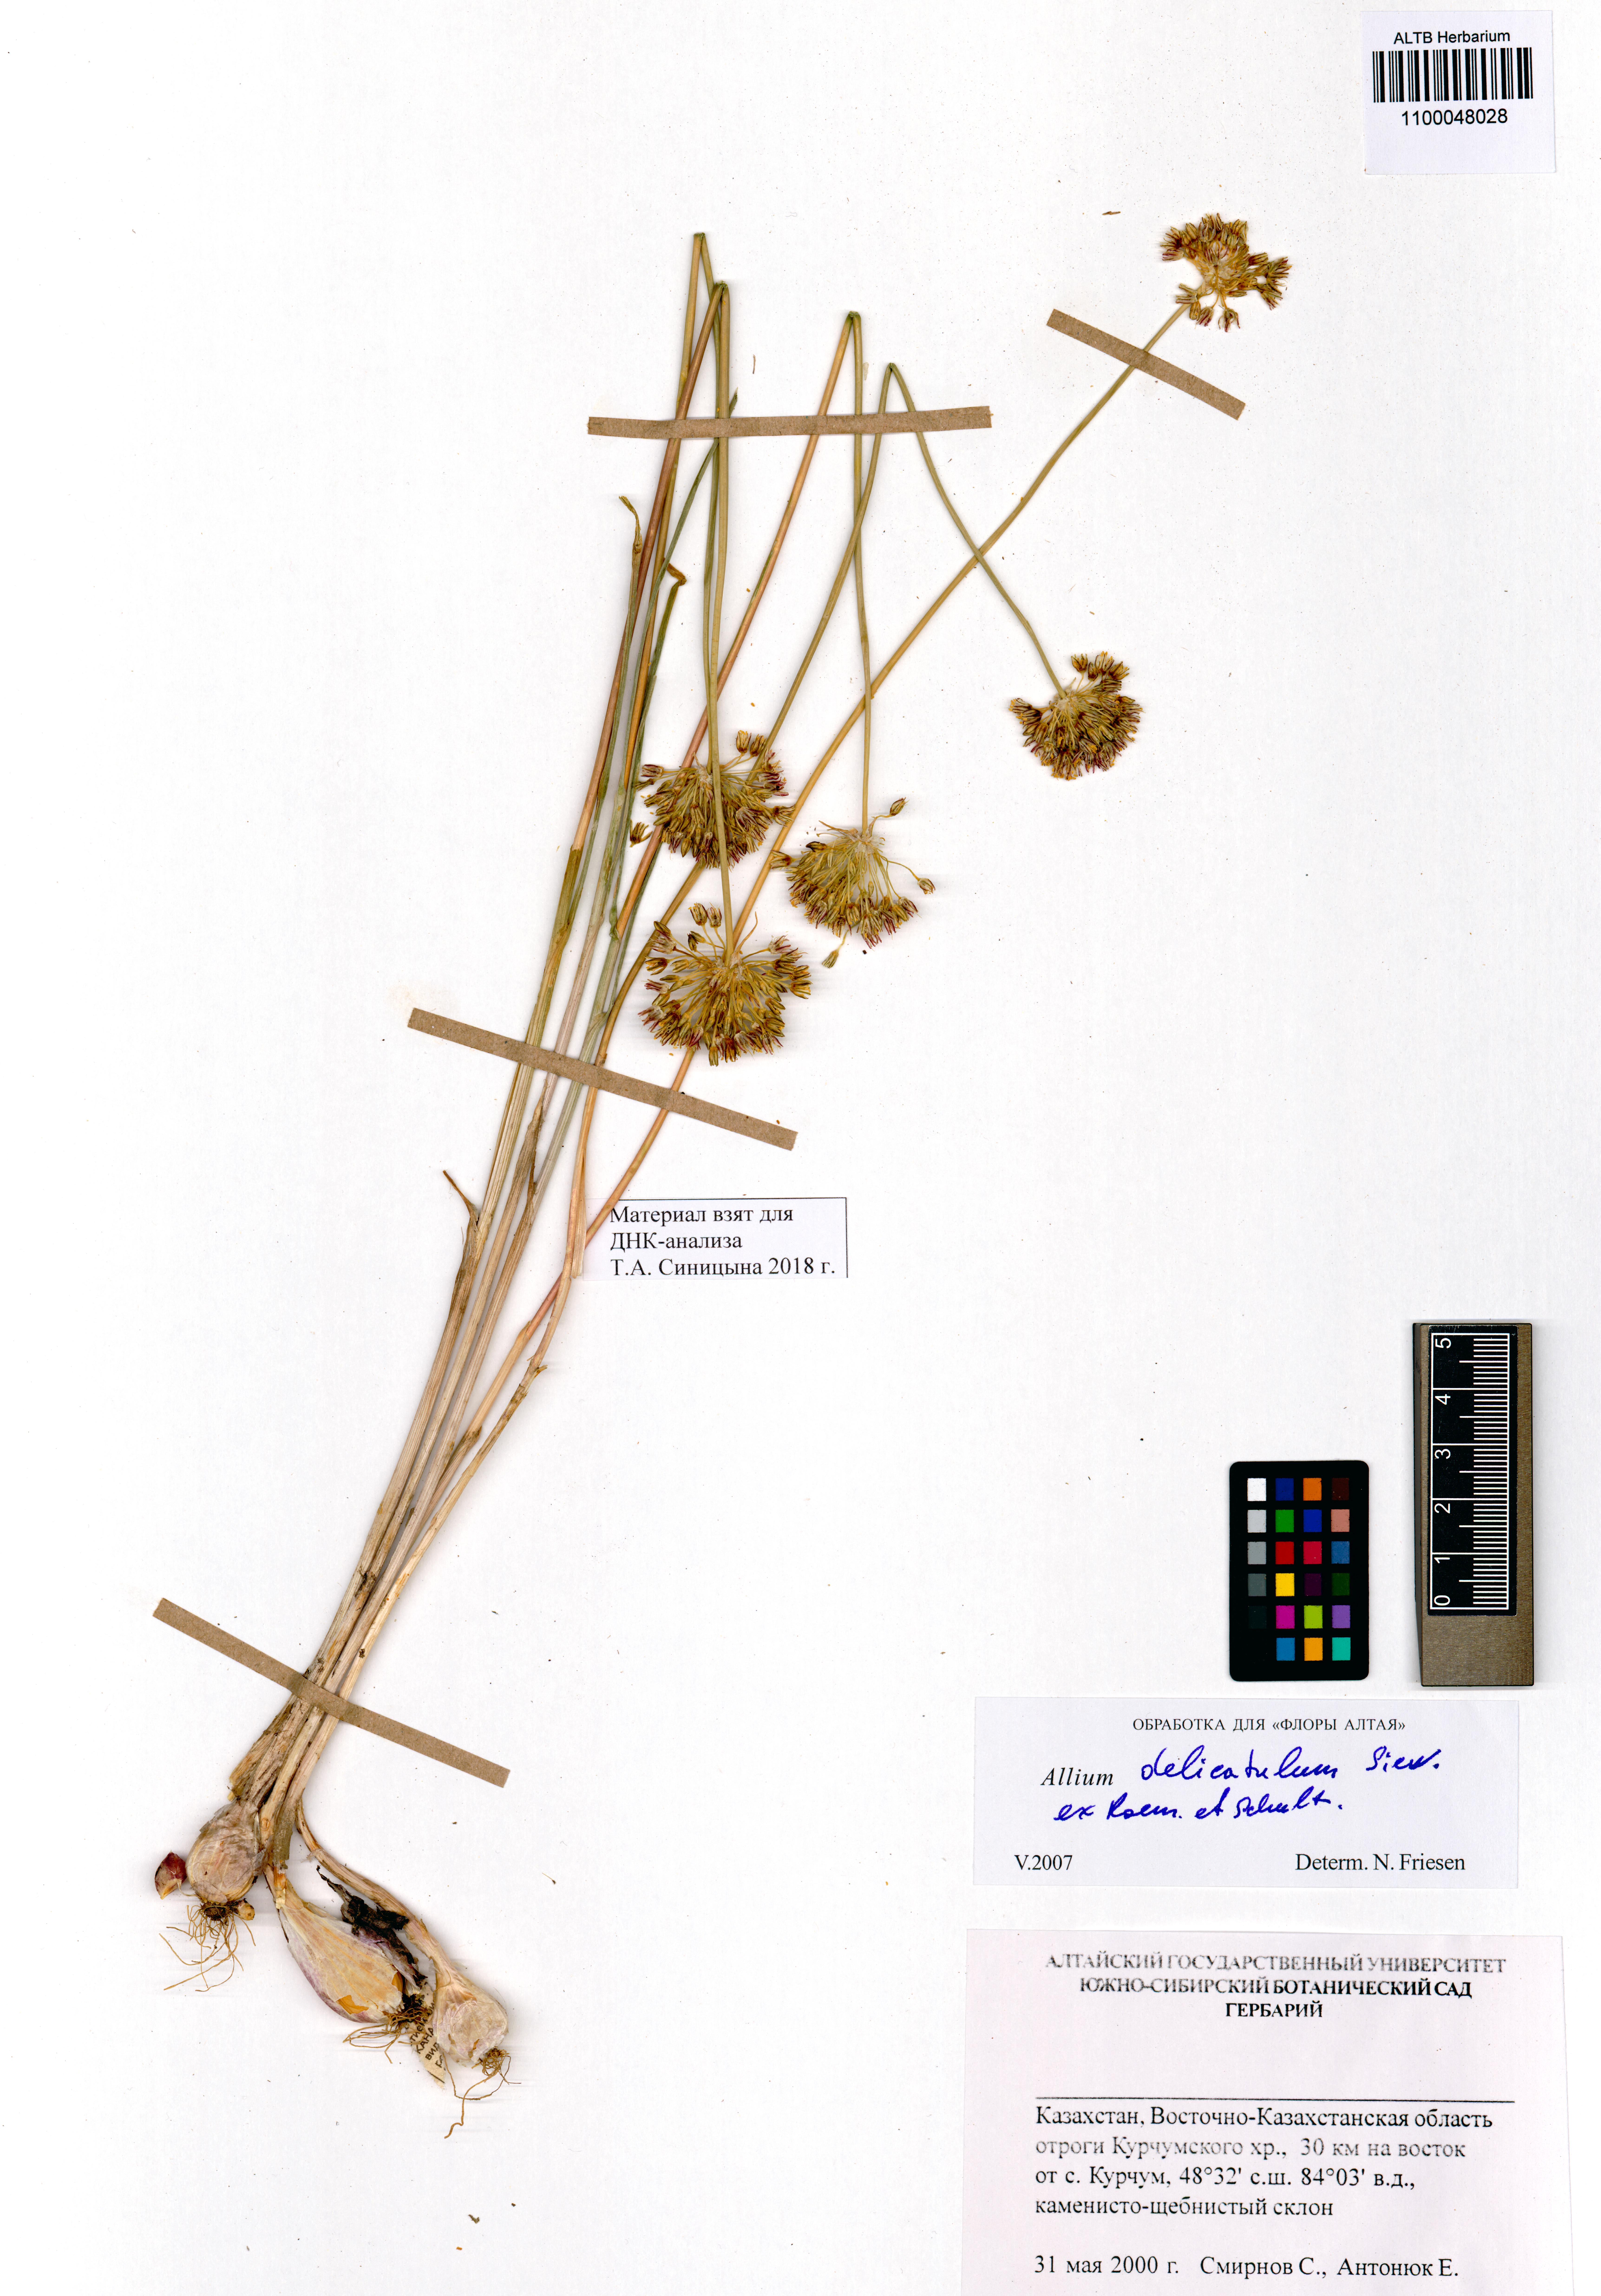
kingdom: Plantae
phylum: Tracheophyta
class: Liliopsida
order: Asparagales
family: Amaryllidaceae
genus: Allium
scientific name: Allium delicatulum
